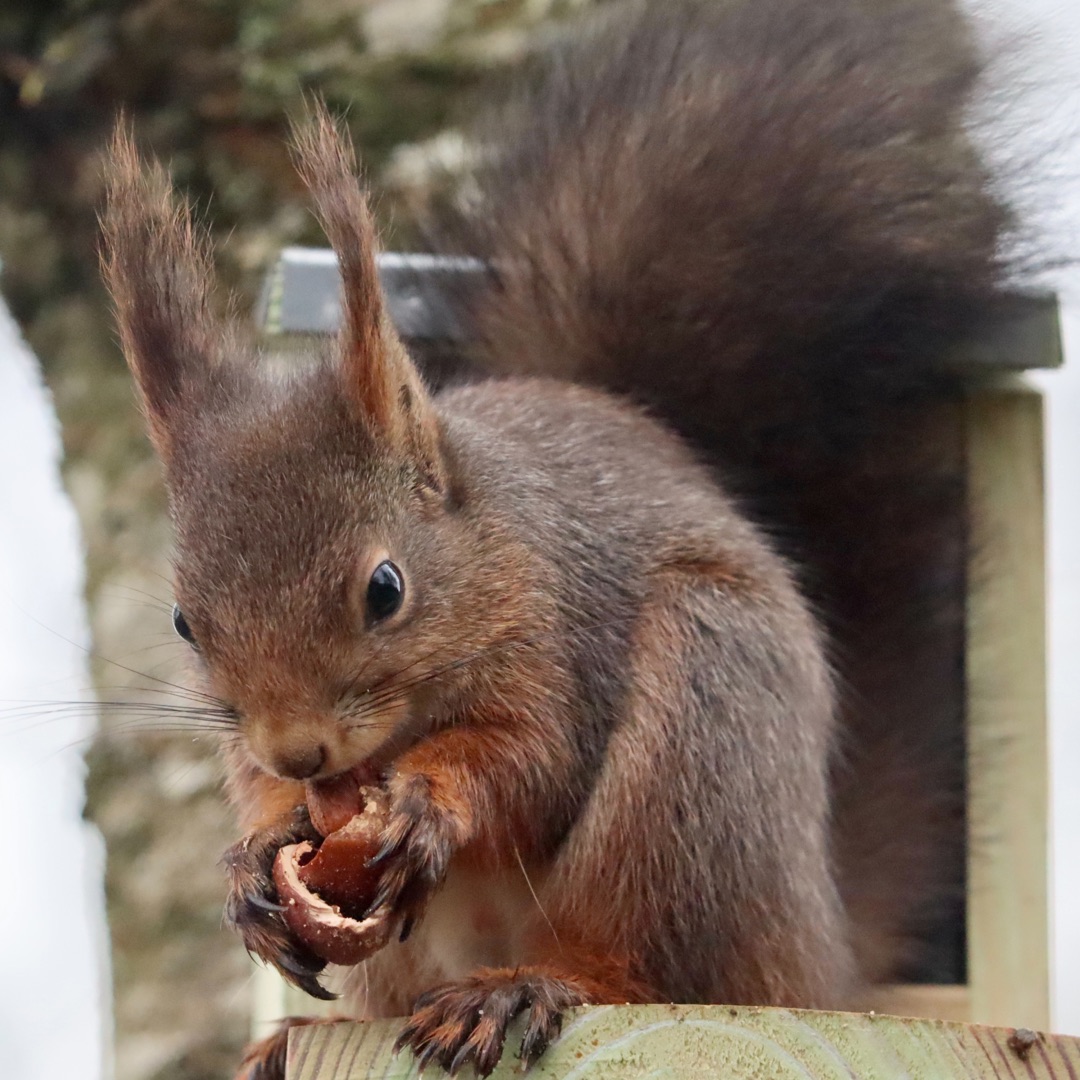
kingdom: Animalia
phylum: Chordata
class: Mammalia
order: Rodentia
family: Sciuridae
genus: Sciurus
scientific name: Sciurus vulgaris
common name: Egern
